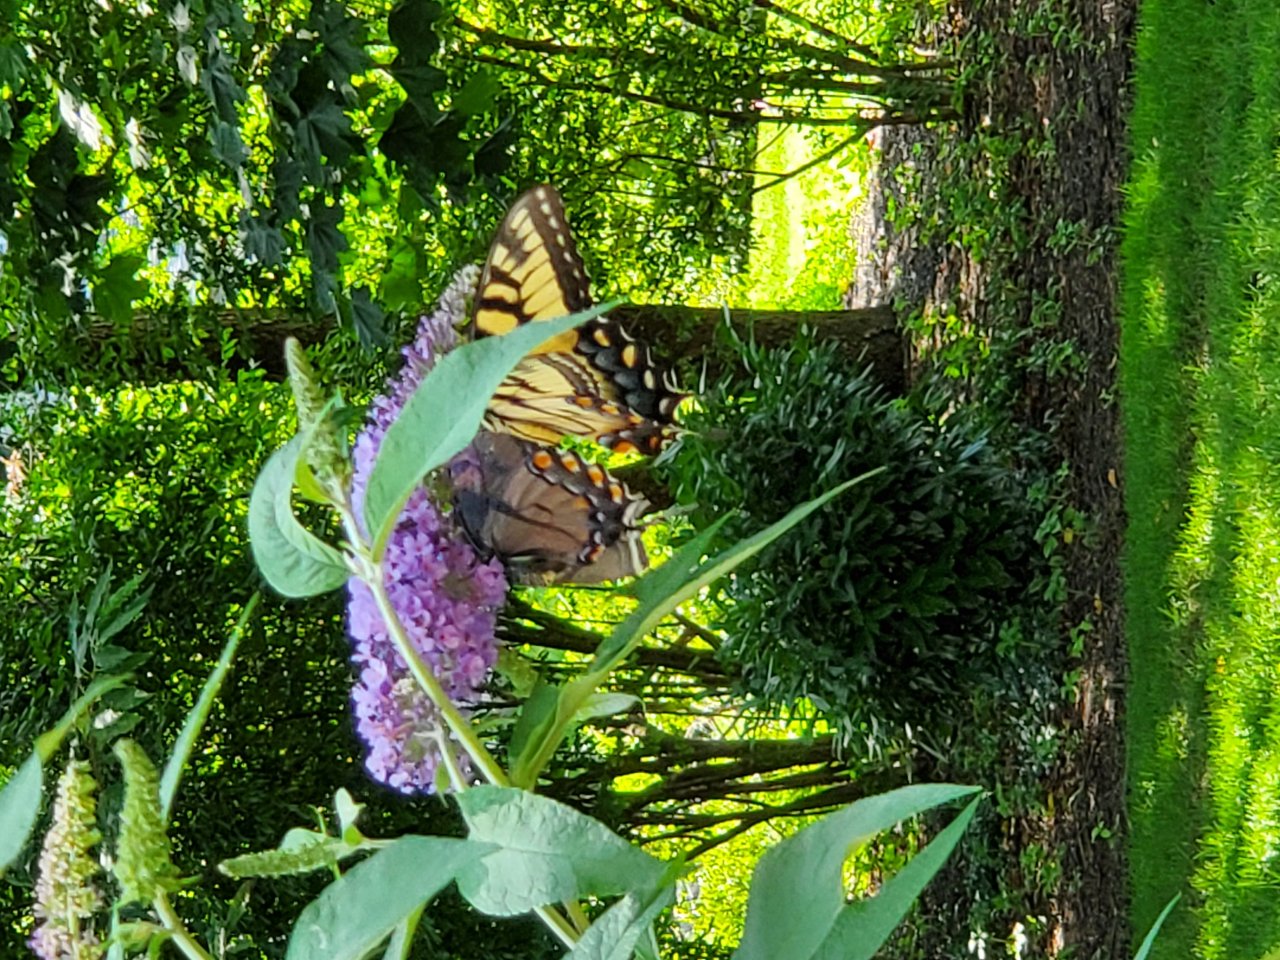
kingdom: Animalia
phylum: Arthropoda
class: Insecta
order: Lepidoptera
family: Papilionidae
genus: Pterourus
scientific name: Pterourus glaucus
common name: Eastern Tiger Swallowtail
